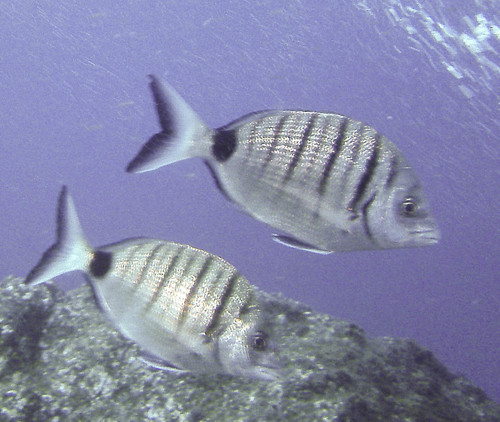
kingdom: Animalia
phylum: Chordata
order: Perciformes
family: Sparidae
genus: Diplodus
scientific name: Diplodus cadenati
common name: Moroccan white seabream
